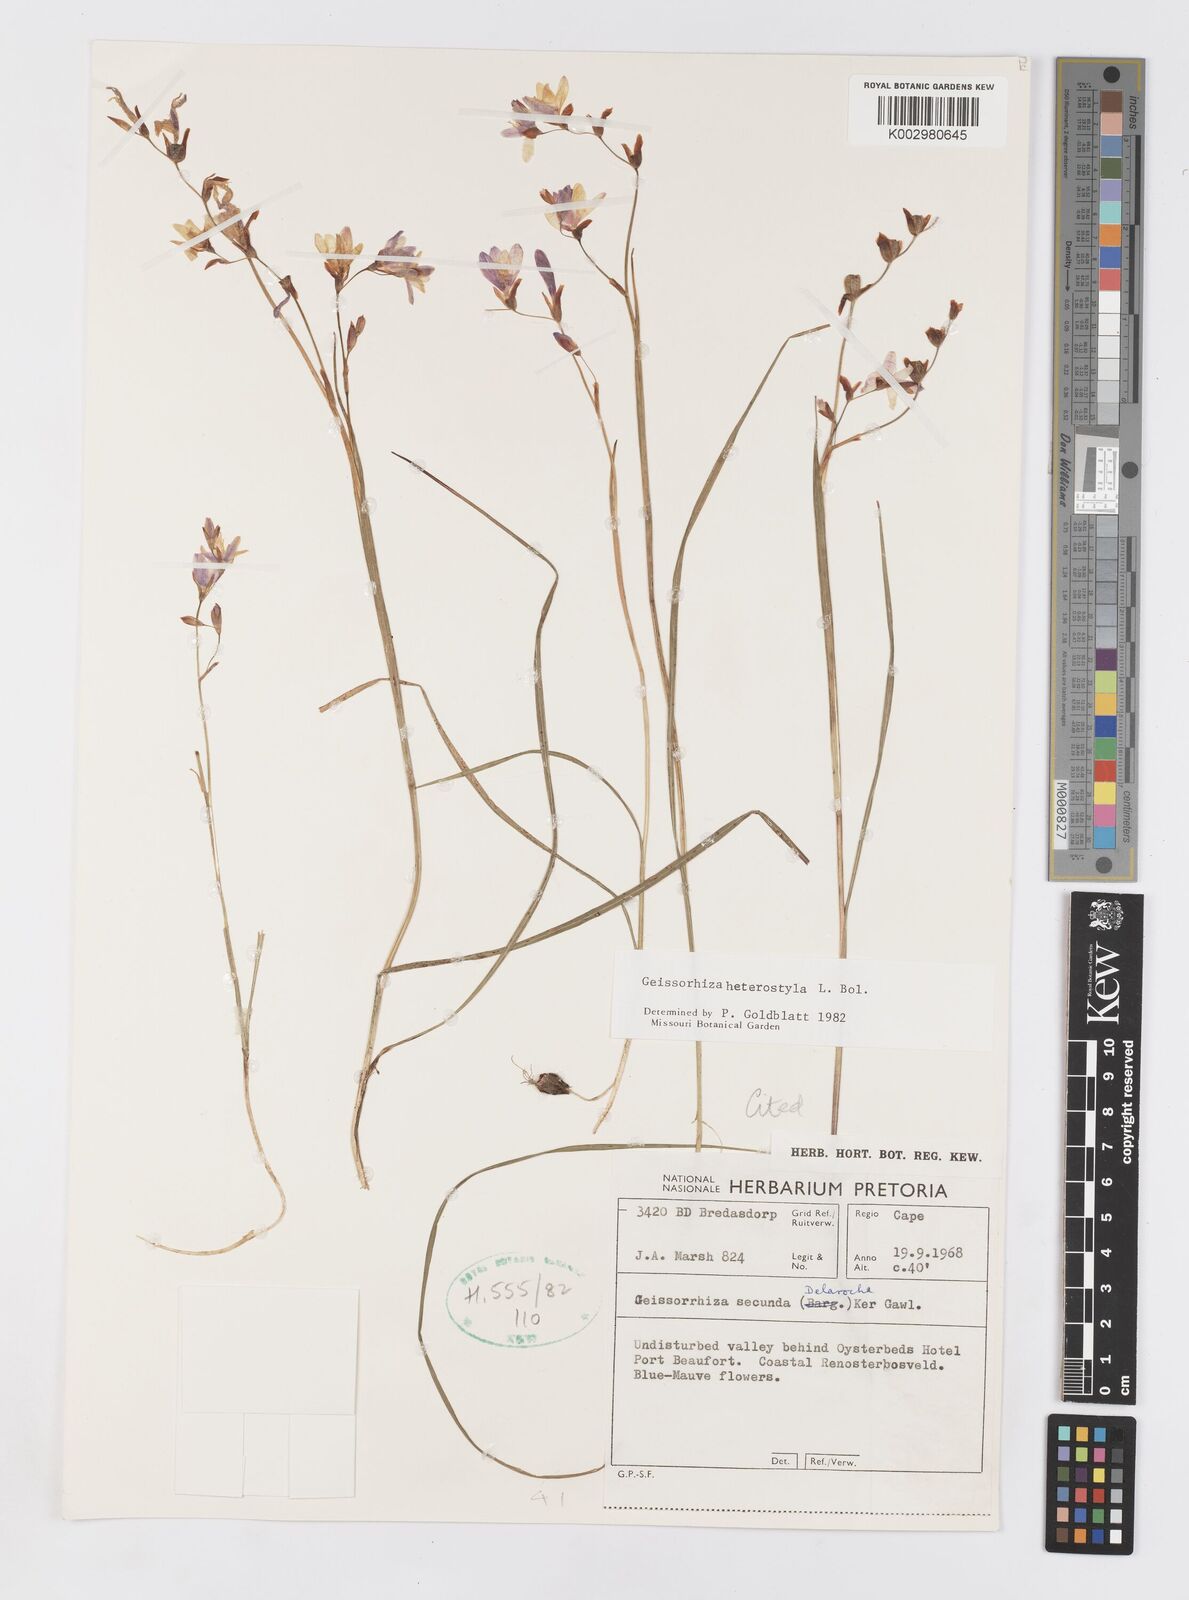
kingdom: Plantae
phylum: Tracheophyta
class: Liliopsida
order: Asparagales
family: Iridaceae
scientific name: Iridaceae
